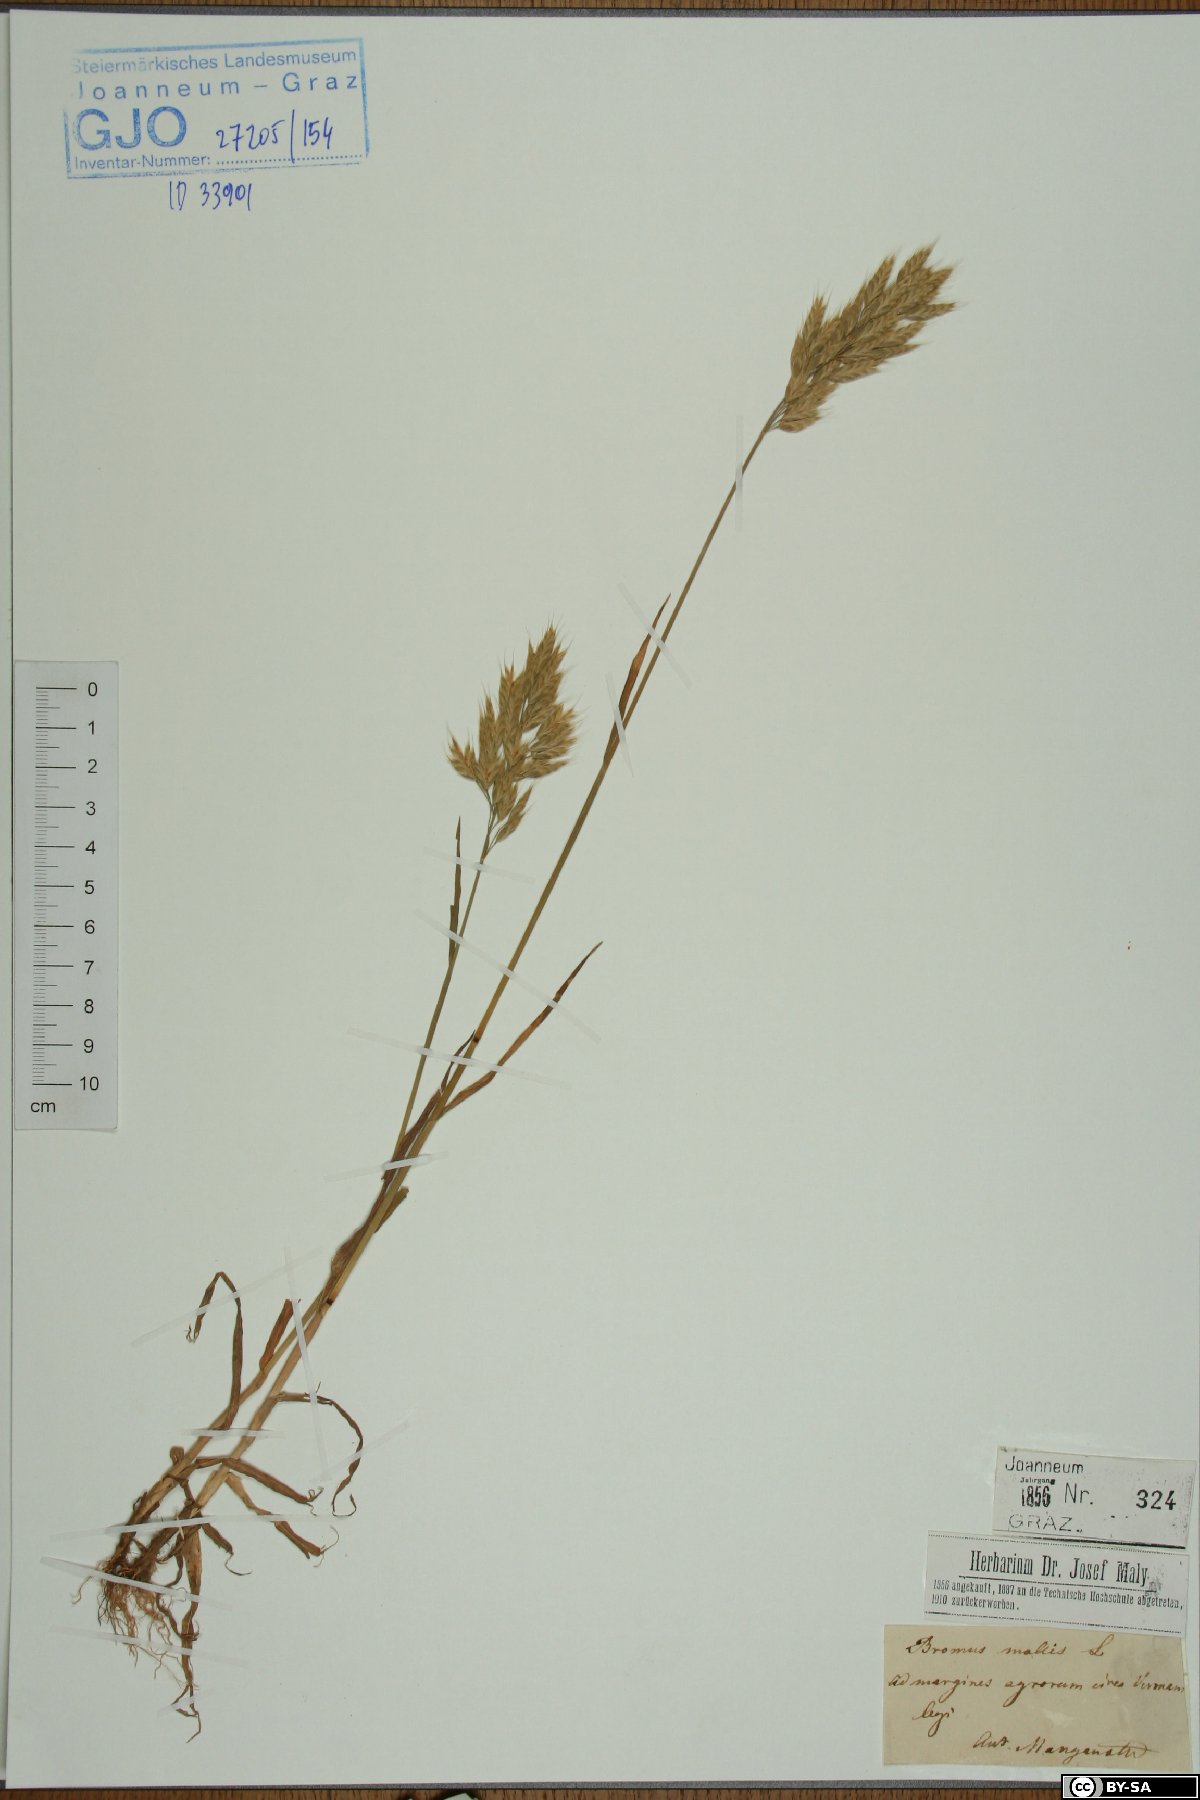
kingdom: Plantae
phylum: Tracheophyta
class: Liliopsida
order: Poales
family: Poaceae
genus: Bromus
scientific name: Bromus hordeaceus
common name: Soft brome
